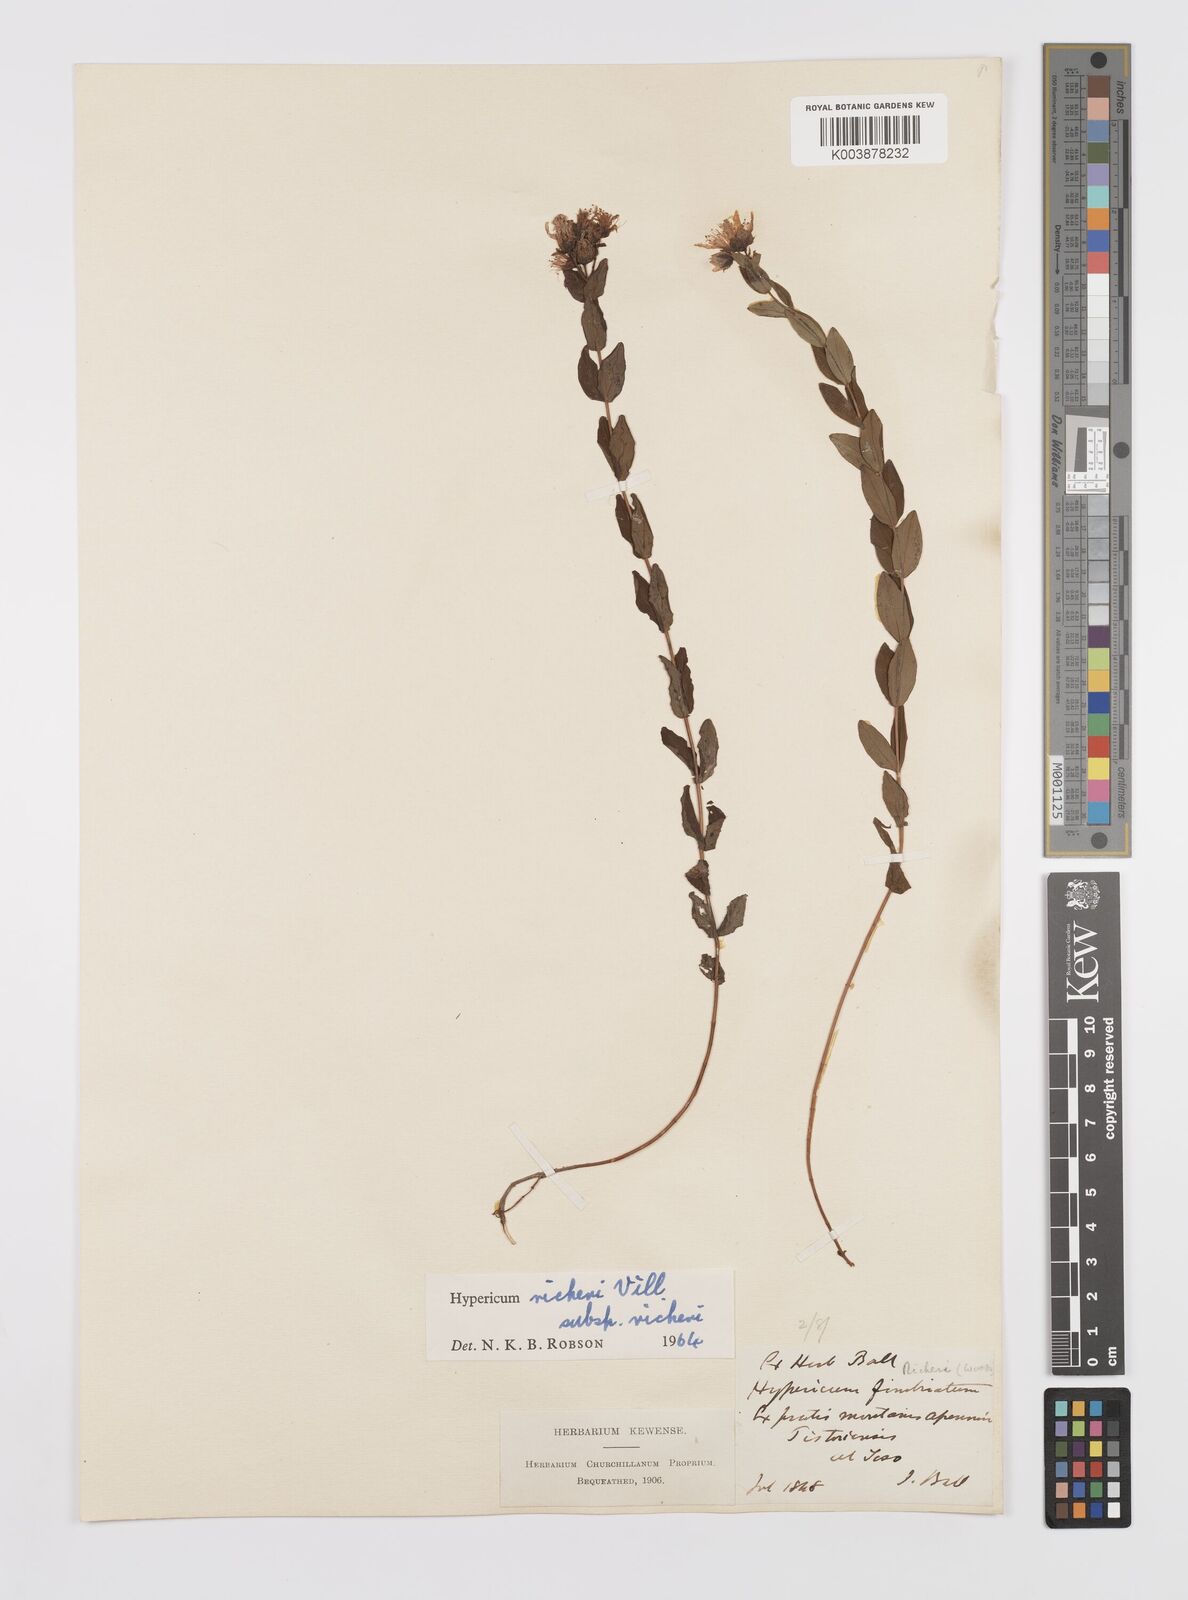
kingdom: Plantae
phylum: Tracheophyta
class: Magnoliopsida
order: Malpighiales
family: Hypericaceae
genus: Hypericum
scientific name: Hypericum richeri
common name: Alpine st john's-wort
